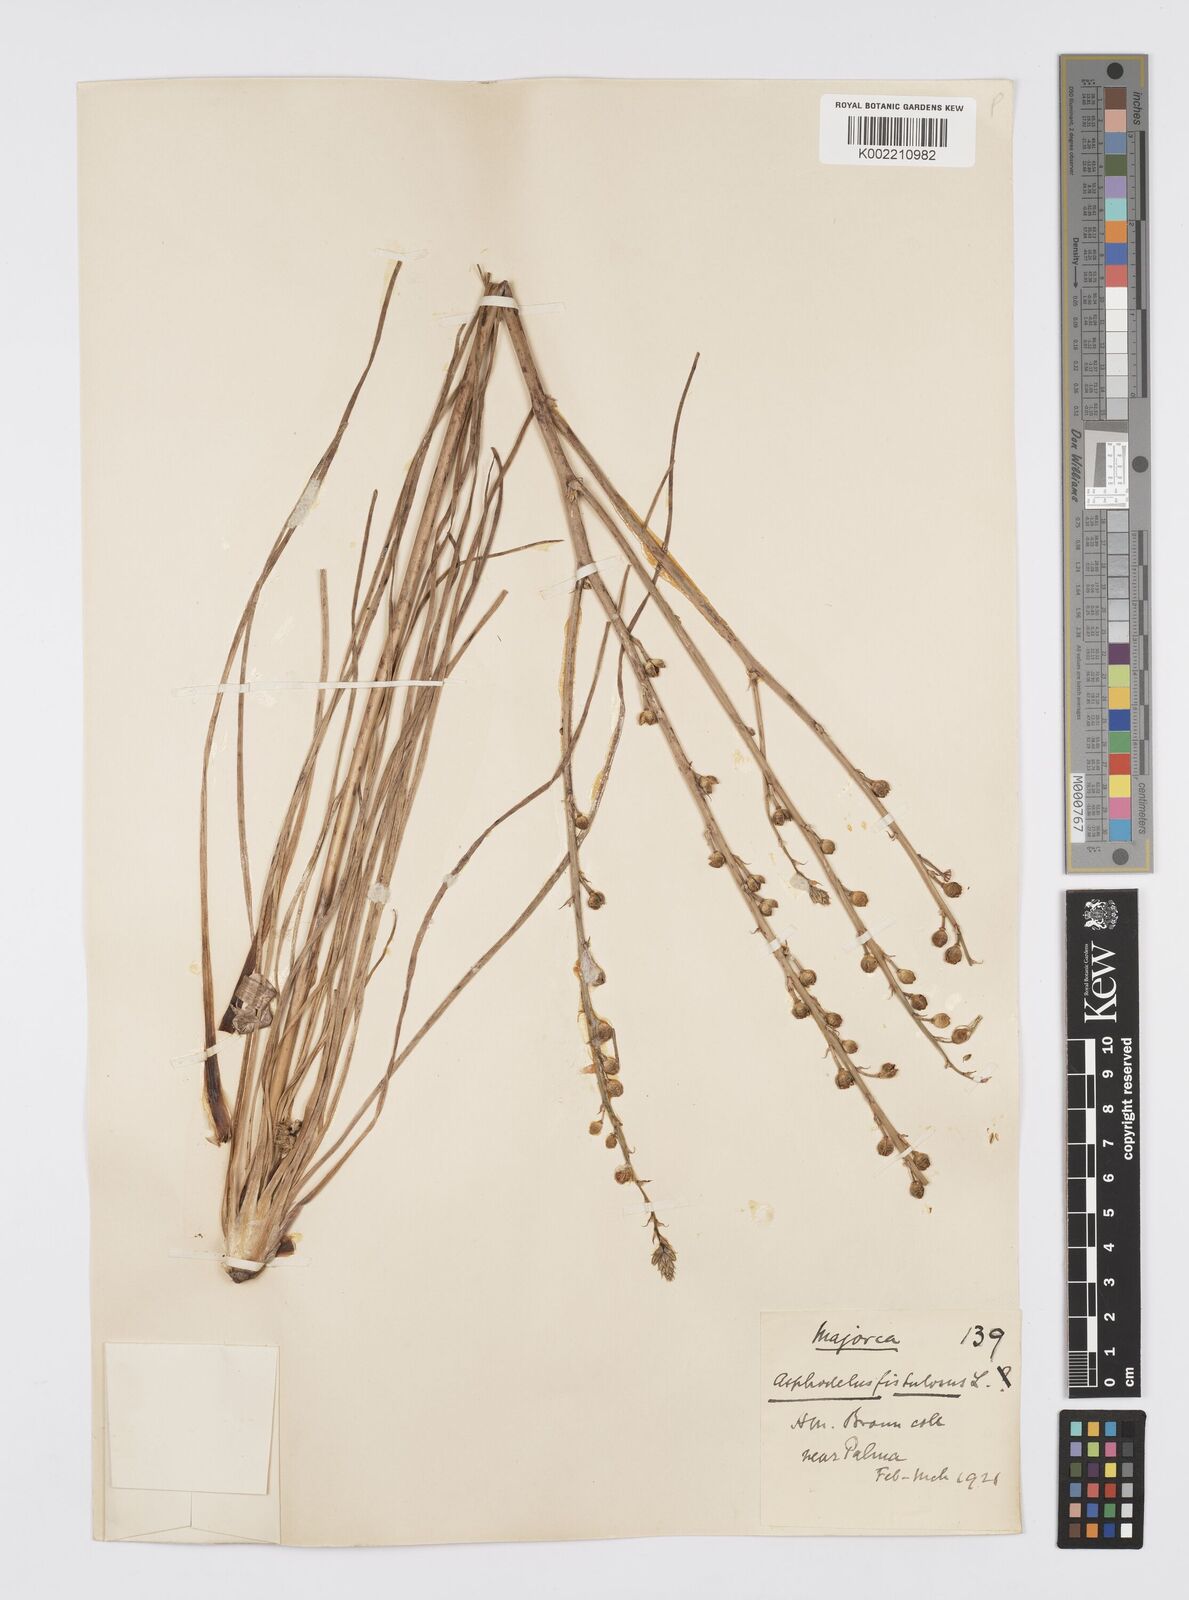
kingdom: Plantae
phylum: Tracheophyta
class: Liliopsida
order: Asparagales
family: Asphodelaceae
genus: Asphodelus
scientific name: Asphodelus fistulosus
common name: Onionweed
